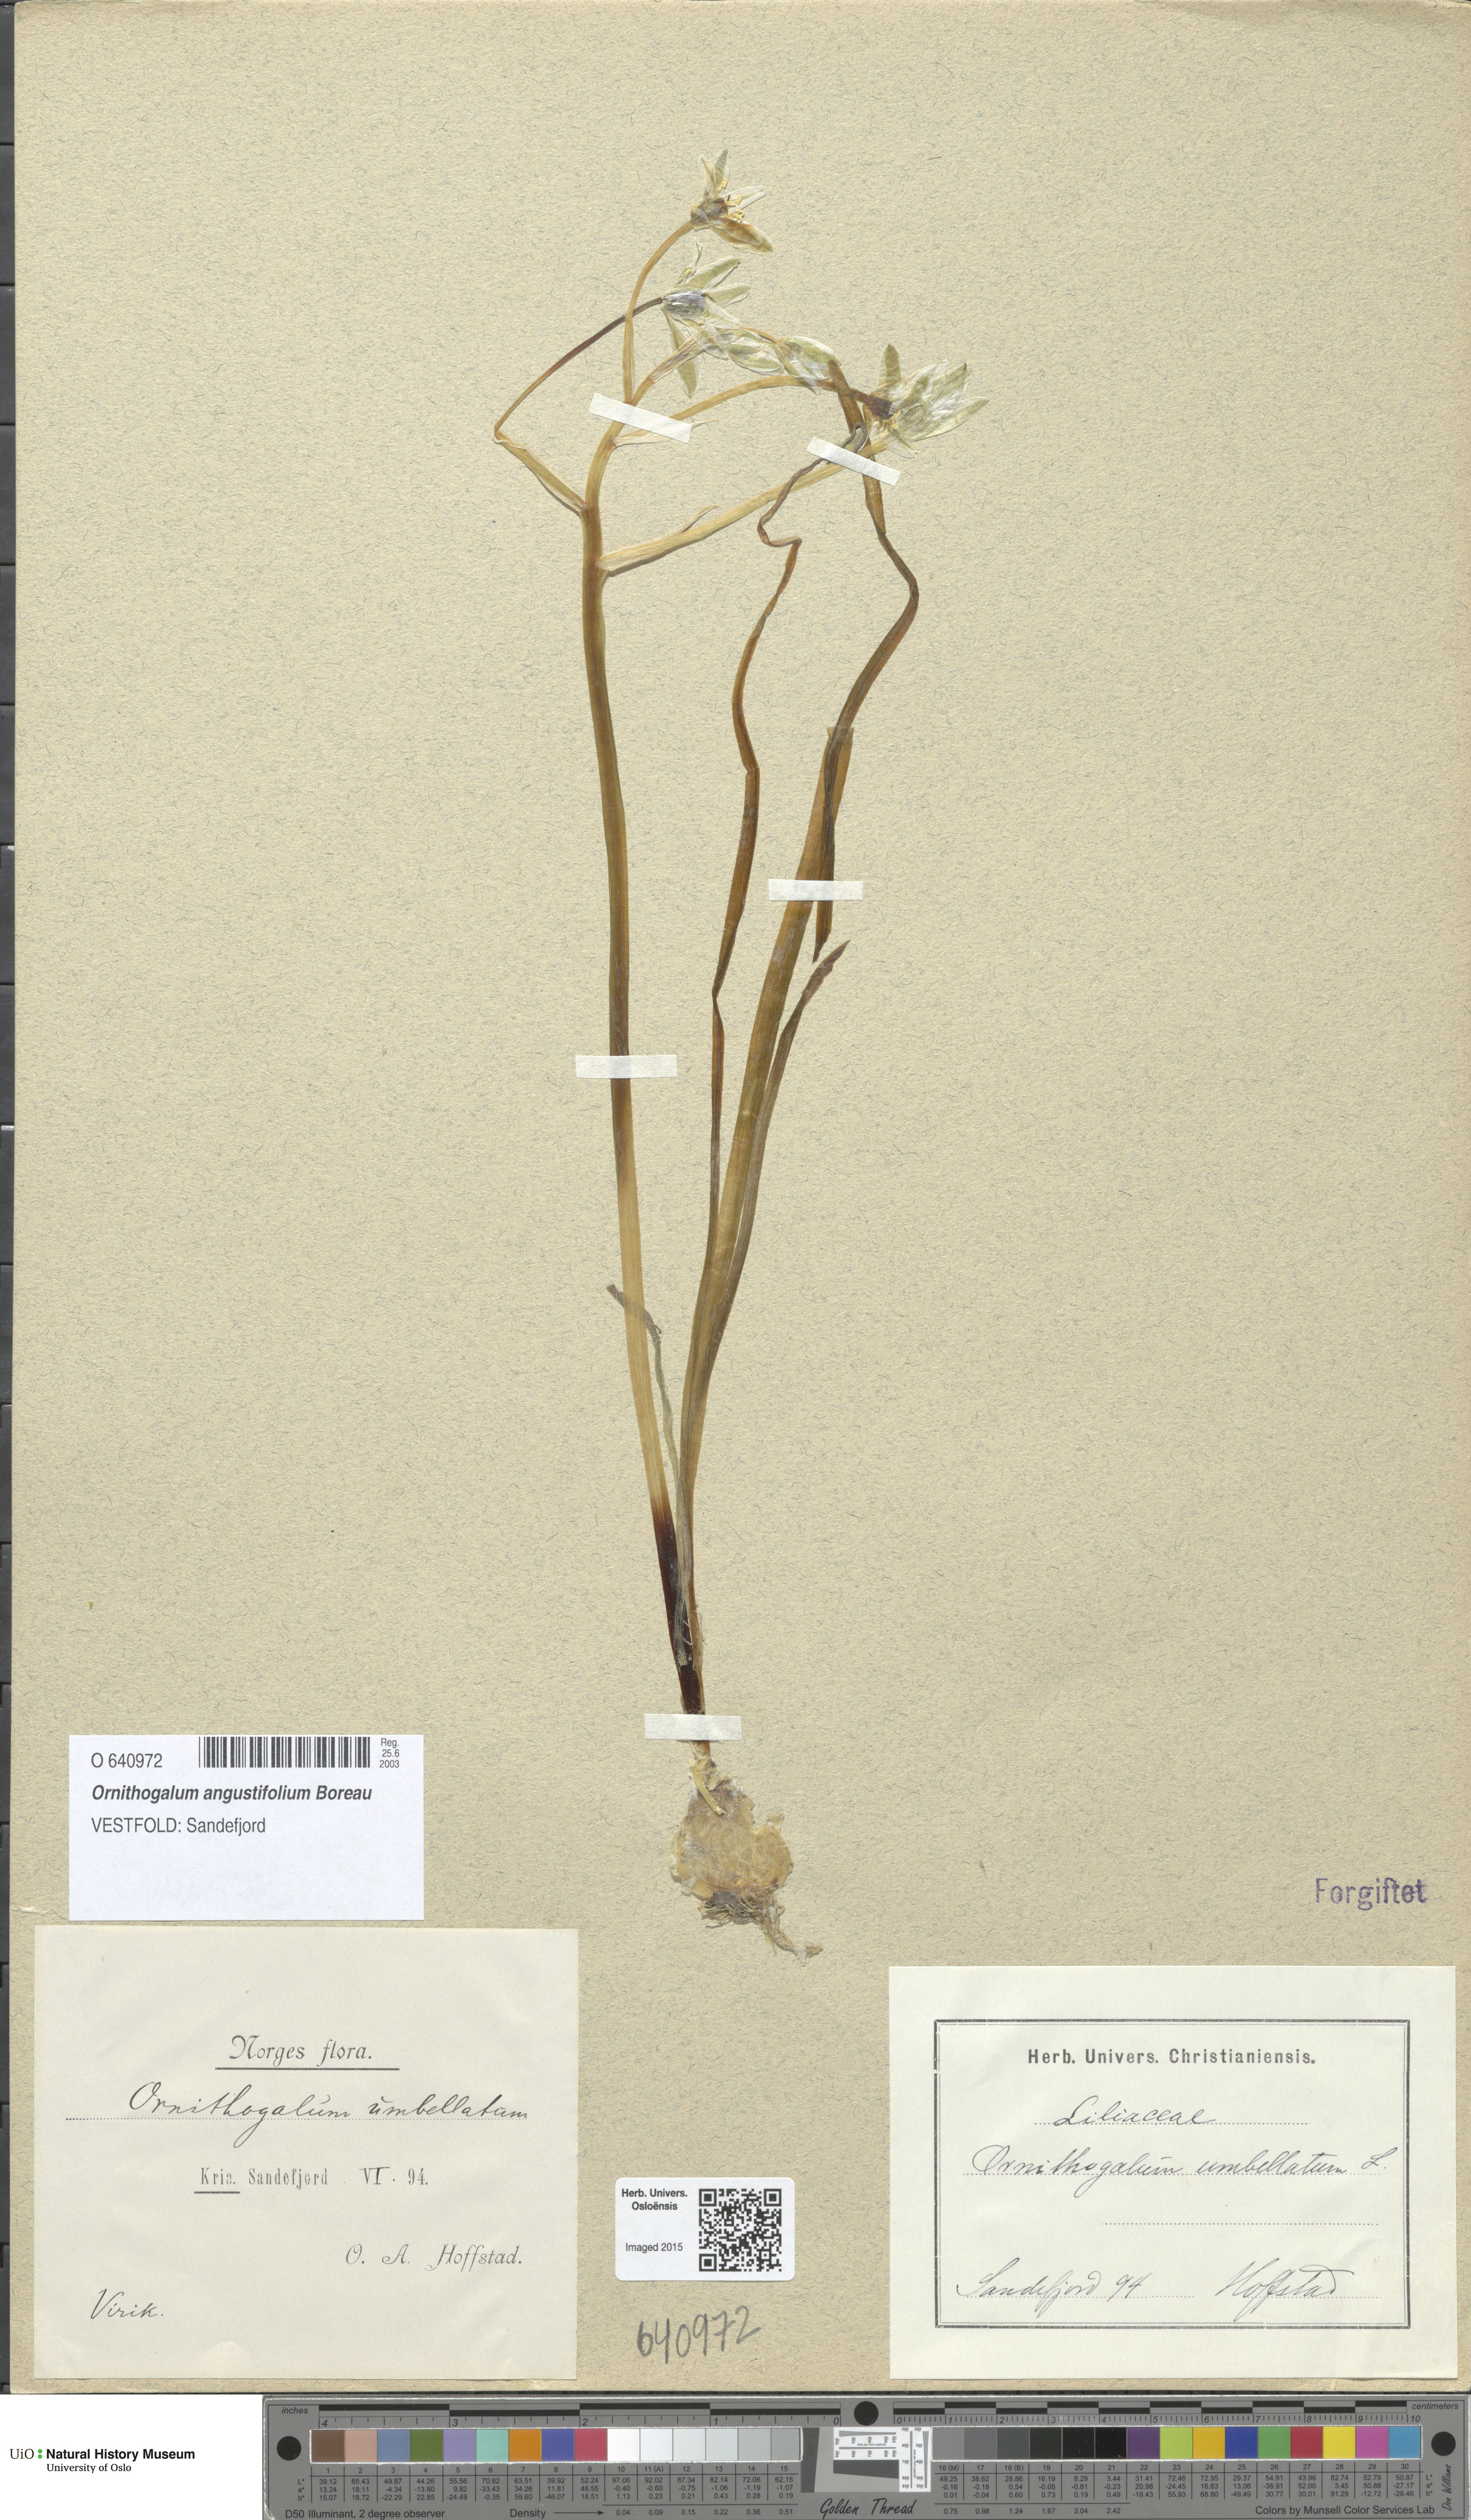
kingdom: Plantae
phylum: Tracheophyta
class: Liliopsida
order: Asparagales
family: Asparagaceae
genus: Ornithogalum
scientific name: Ornithogalum umbellatum
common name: Garden star-of-bethlehem
